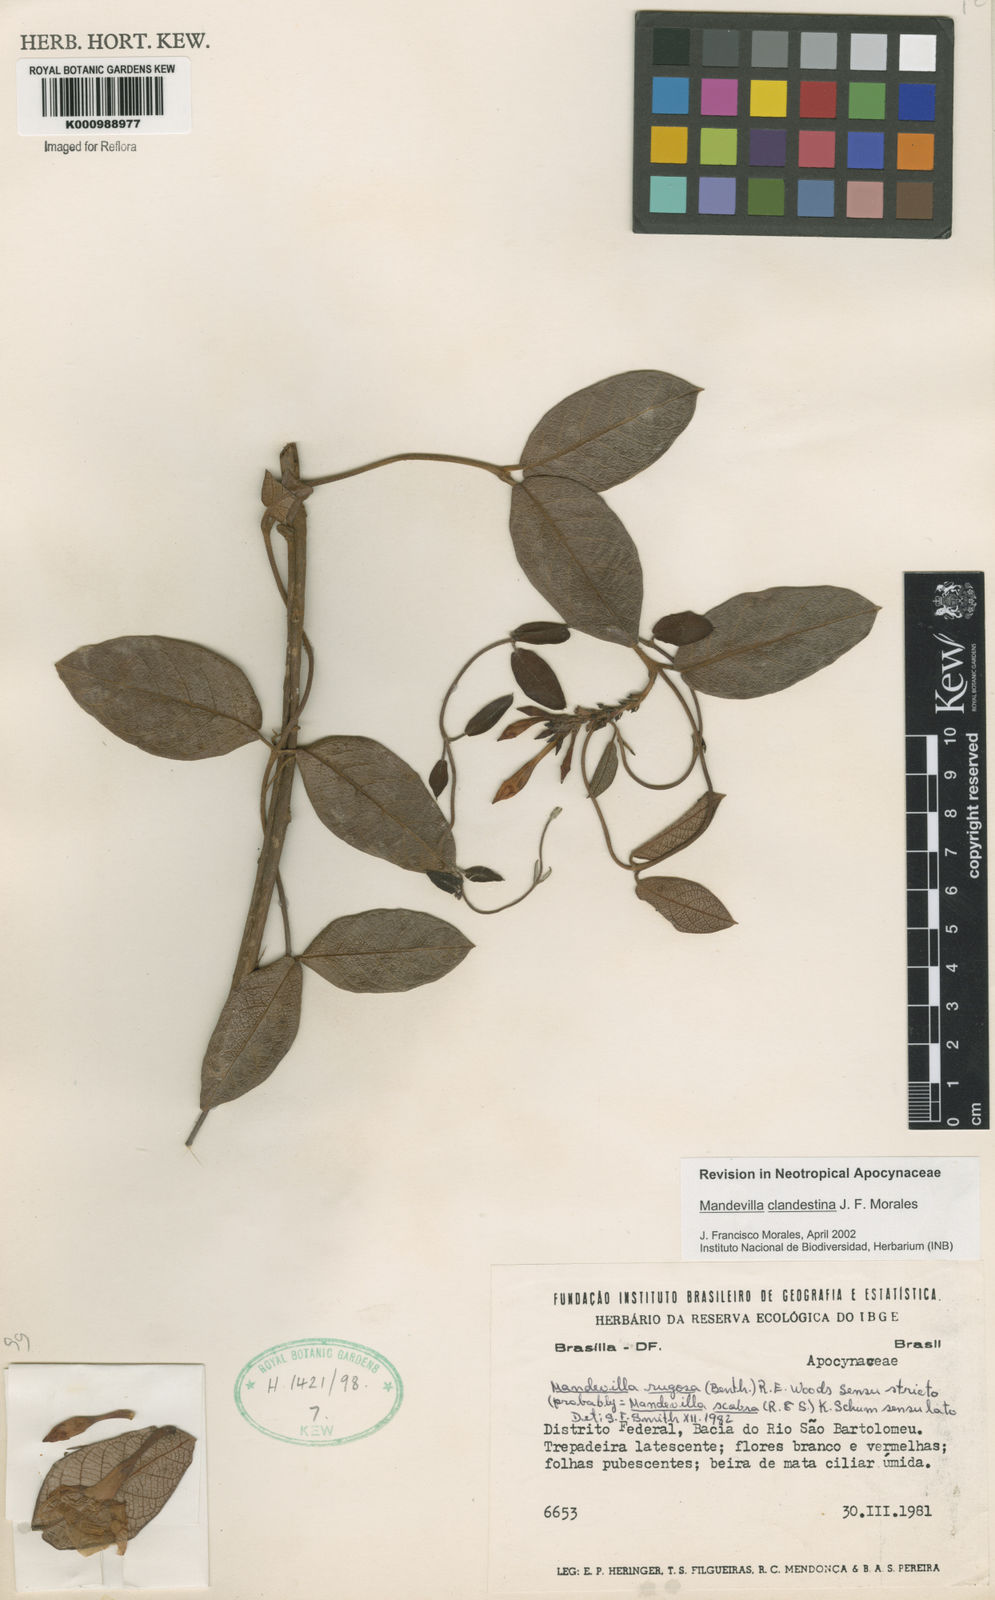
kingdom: Plantae
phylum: Tracheophyta
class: Magnoliopsida
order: Gentianales
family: Apocynaceae
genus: Mandevilla
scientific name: Mandevilla clandestina
